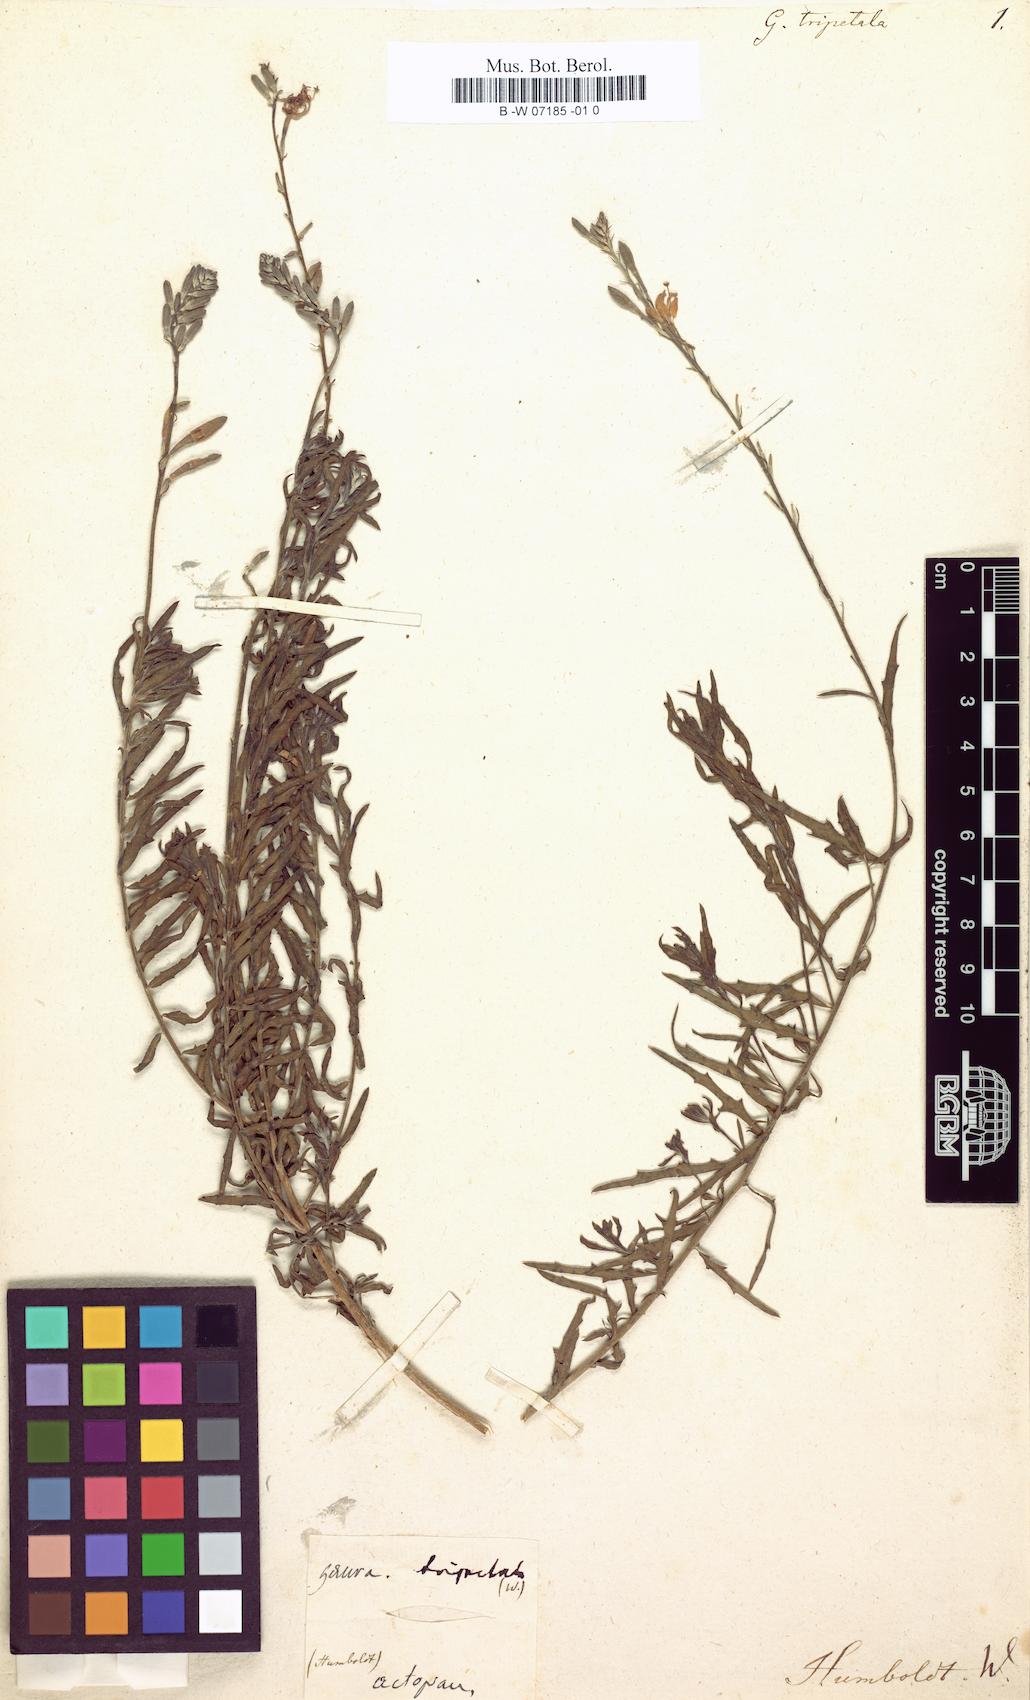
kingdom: Plantae
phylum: Tracheophyta
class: Magnoliopsida
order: Myrtales
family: Onagraceae
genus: Oenothera
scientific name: Oenothera suffrutescens
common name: Scarlet beeblossom
